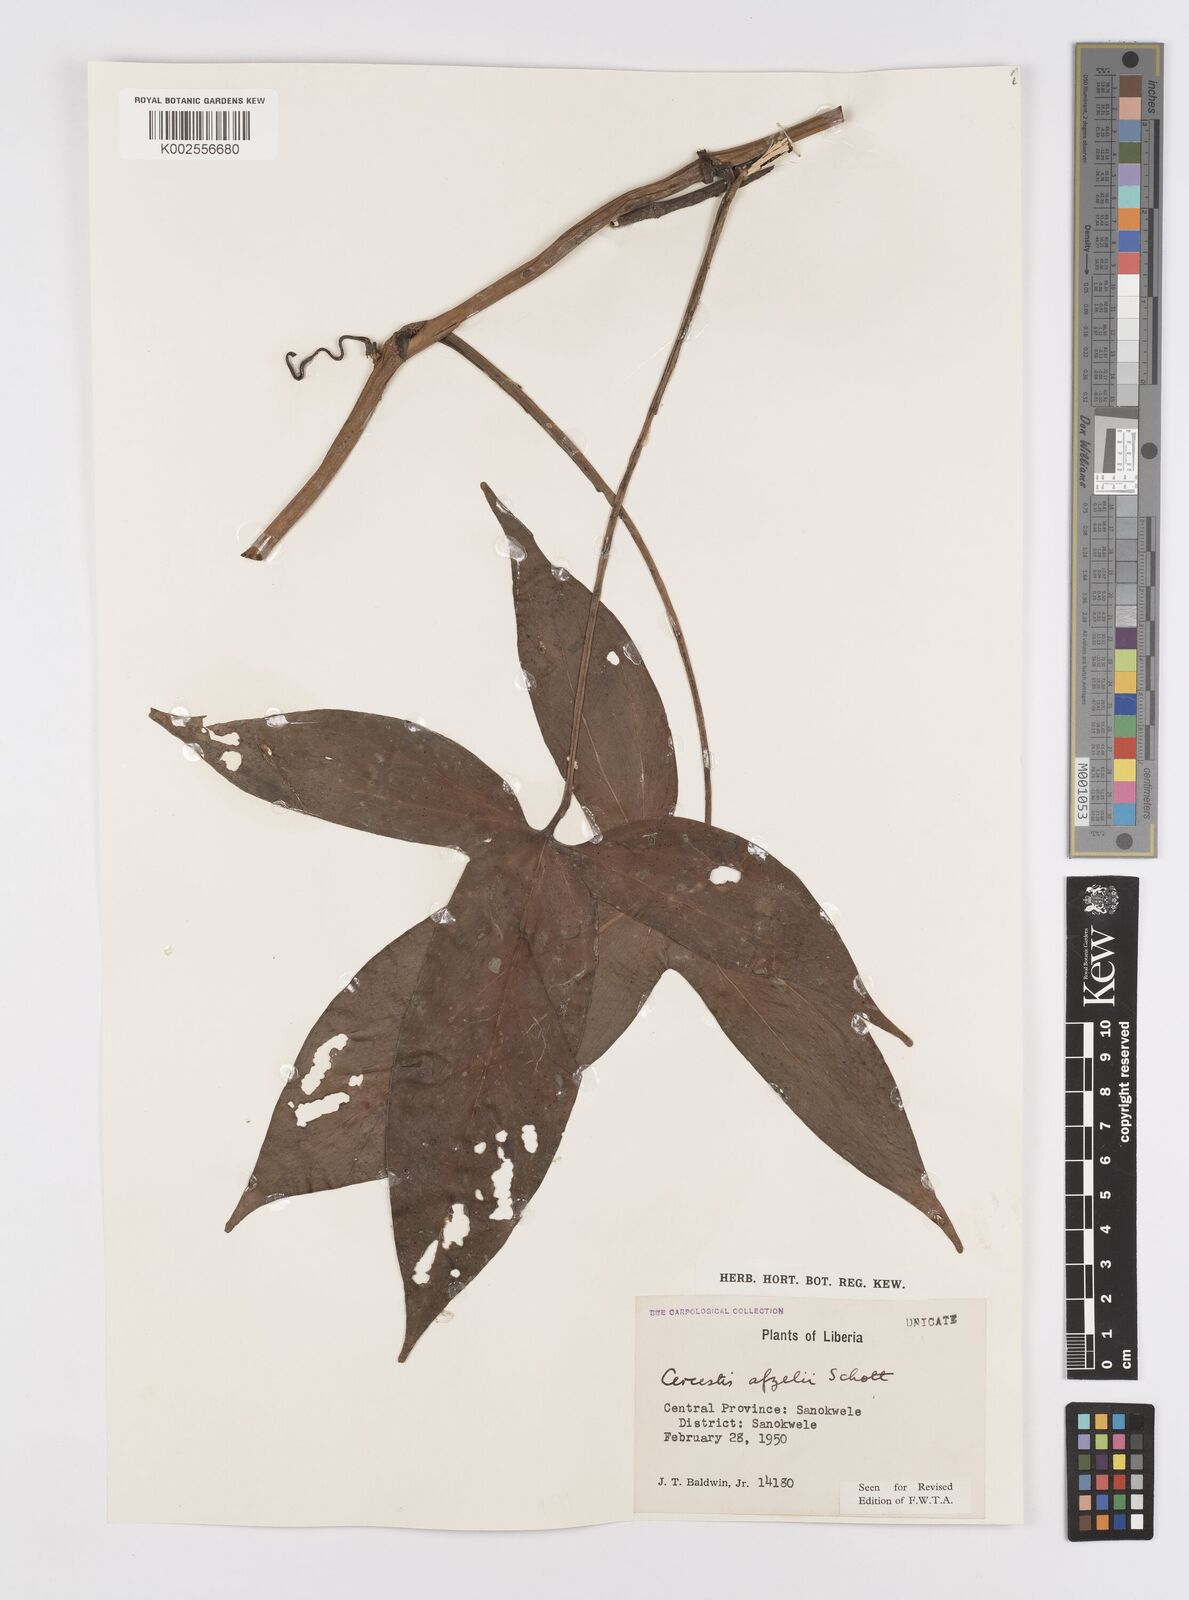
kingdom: Plantae
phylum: Tracheophyta
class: Liliopsida
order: Alismatales
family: Araceae
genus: Cercestis
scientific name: Cercestis afzelii
